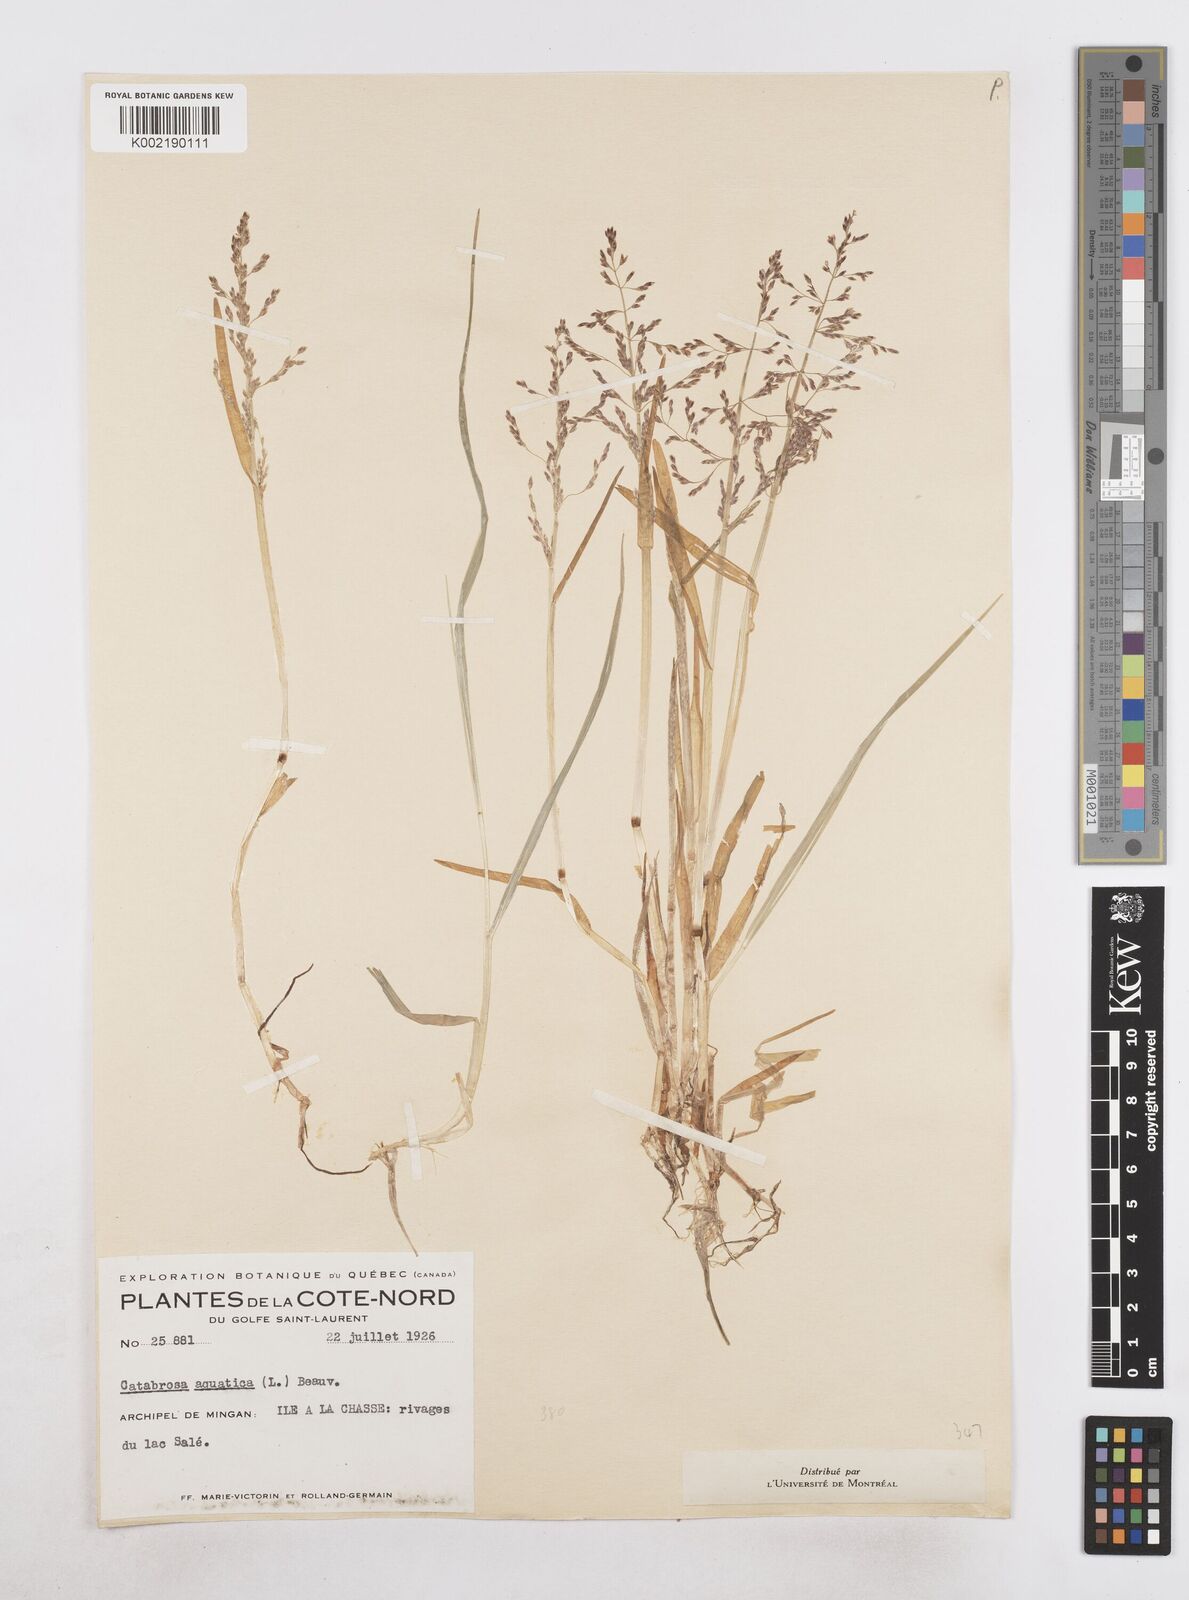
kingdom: Plantae
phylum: Tracheophyta
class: Liliopsida
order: Poales
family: Poaceae
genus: Catabrosa
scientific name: Catabrosa aquatica
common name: Whorl-grass
